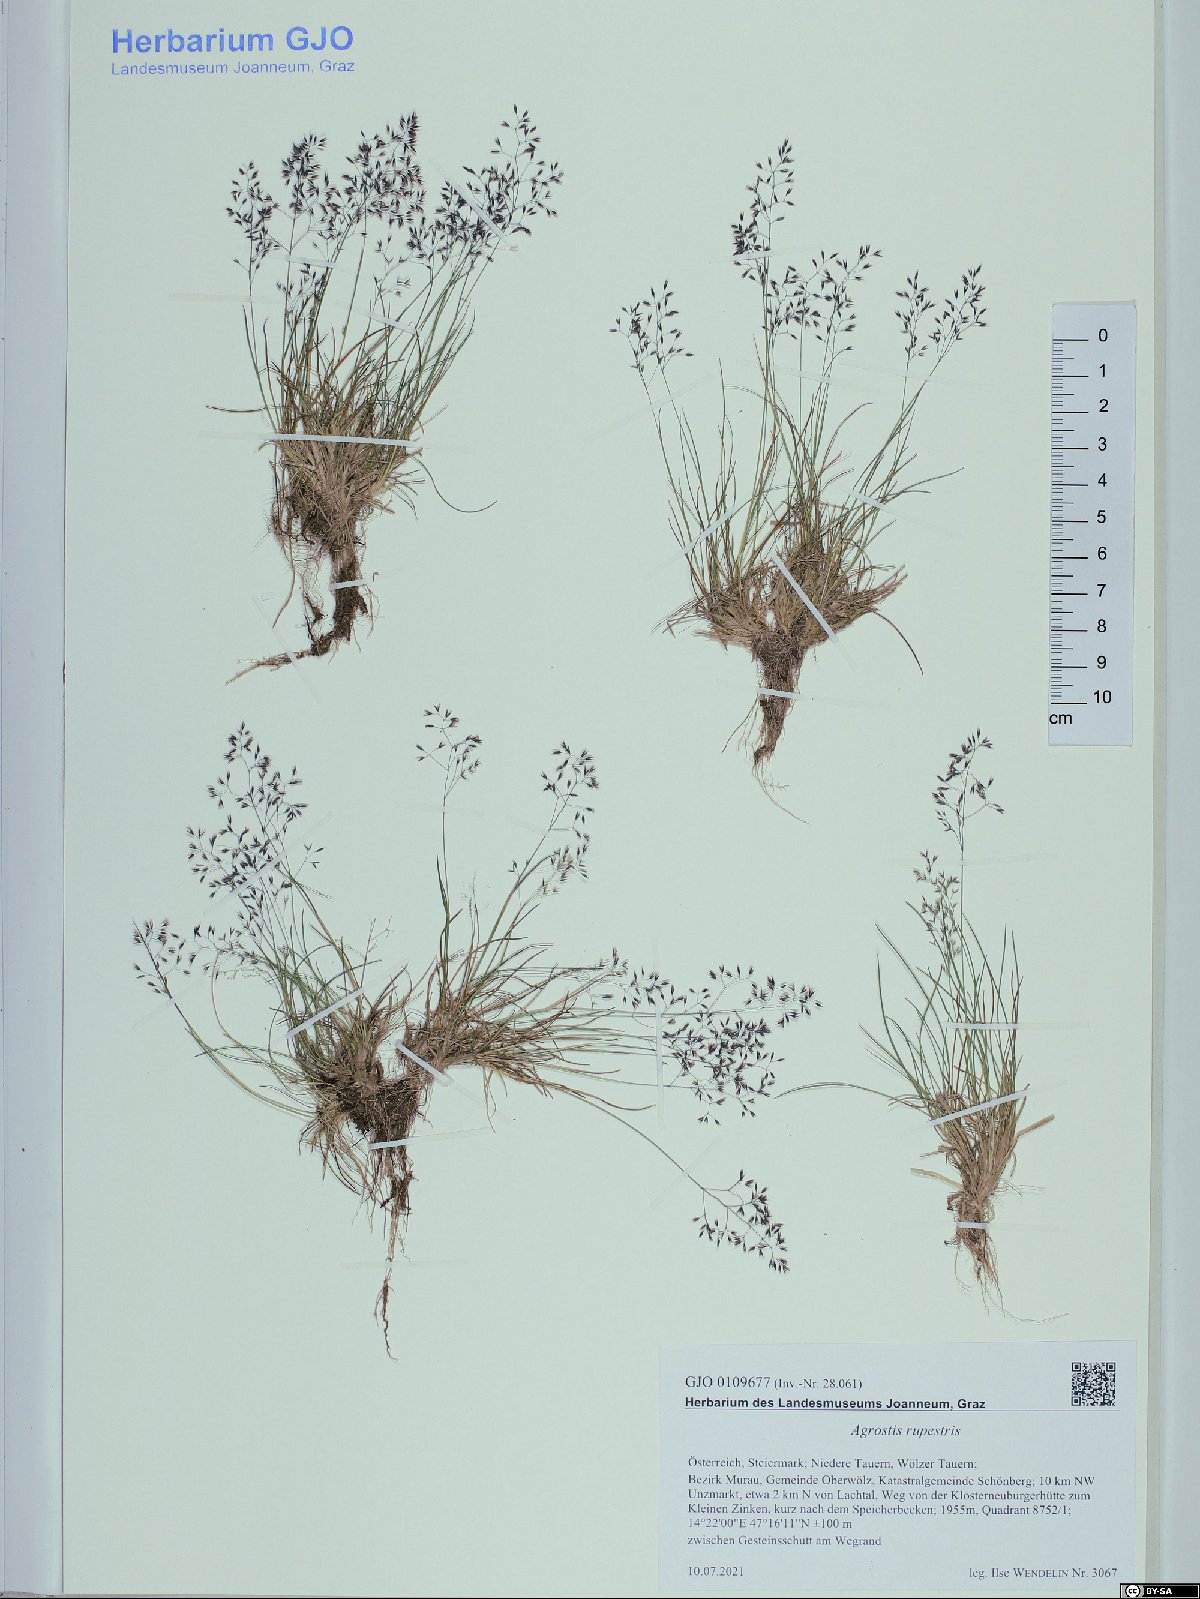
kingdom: Plantae
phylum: Tracheophyta
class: Liliopsida
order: Poales
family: Poaceae
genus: Agrostis
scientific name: Agrostis rupestris
